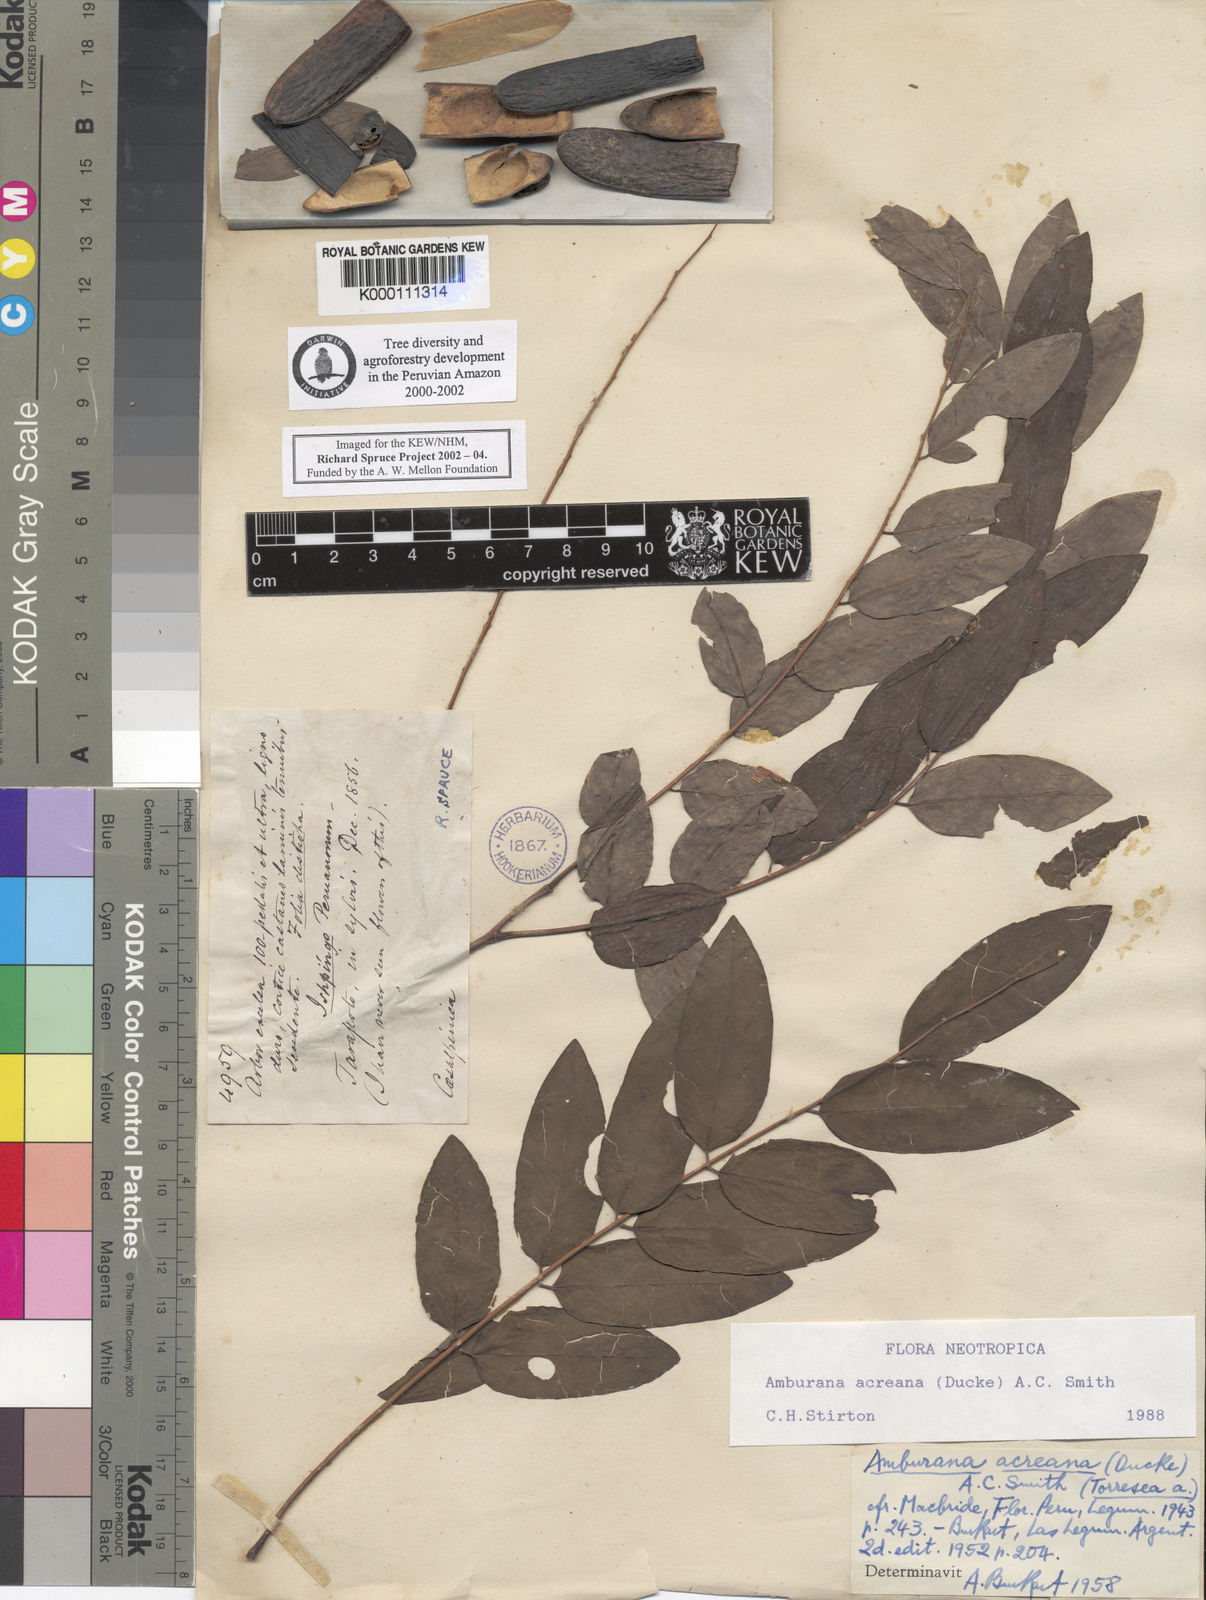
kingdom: Plantae
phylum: Tracheophyta
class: Magnoliopsida
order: Fabales
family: Fabaceae
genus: Amburana
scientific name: Amburana acreana
